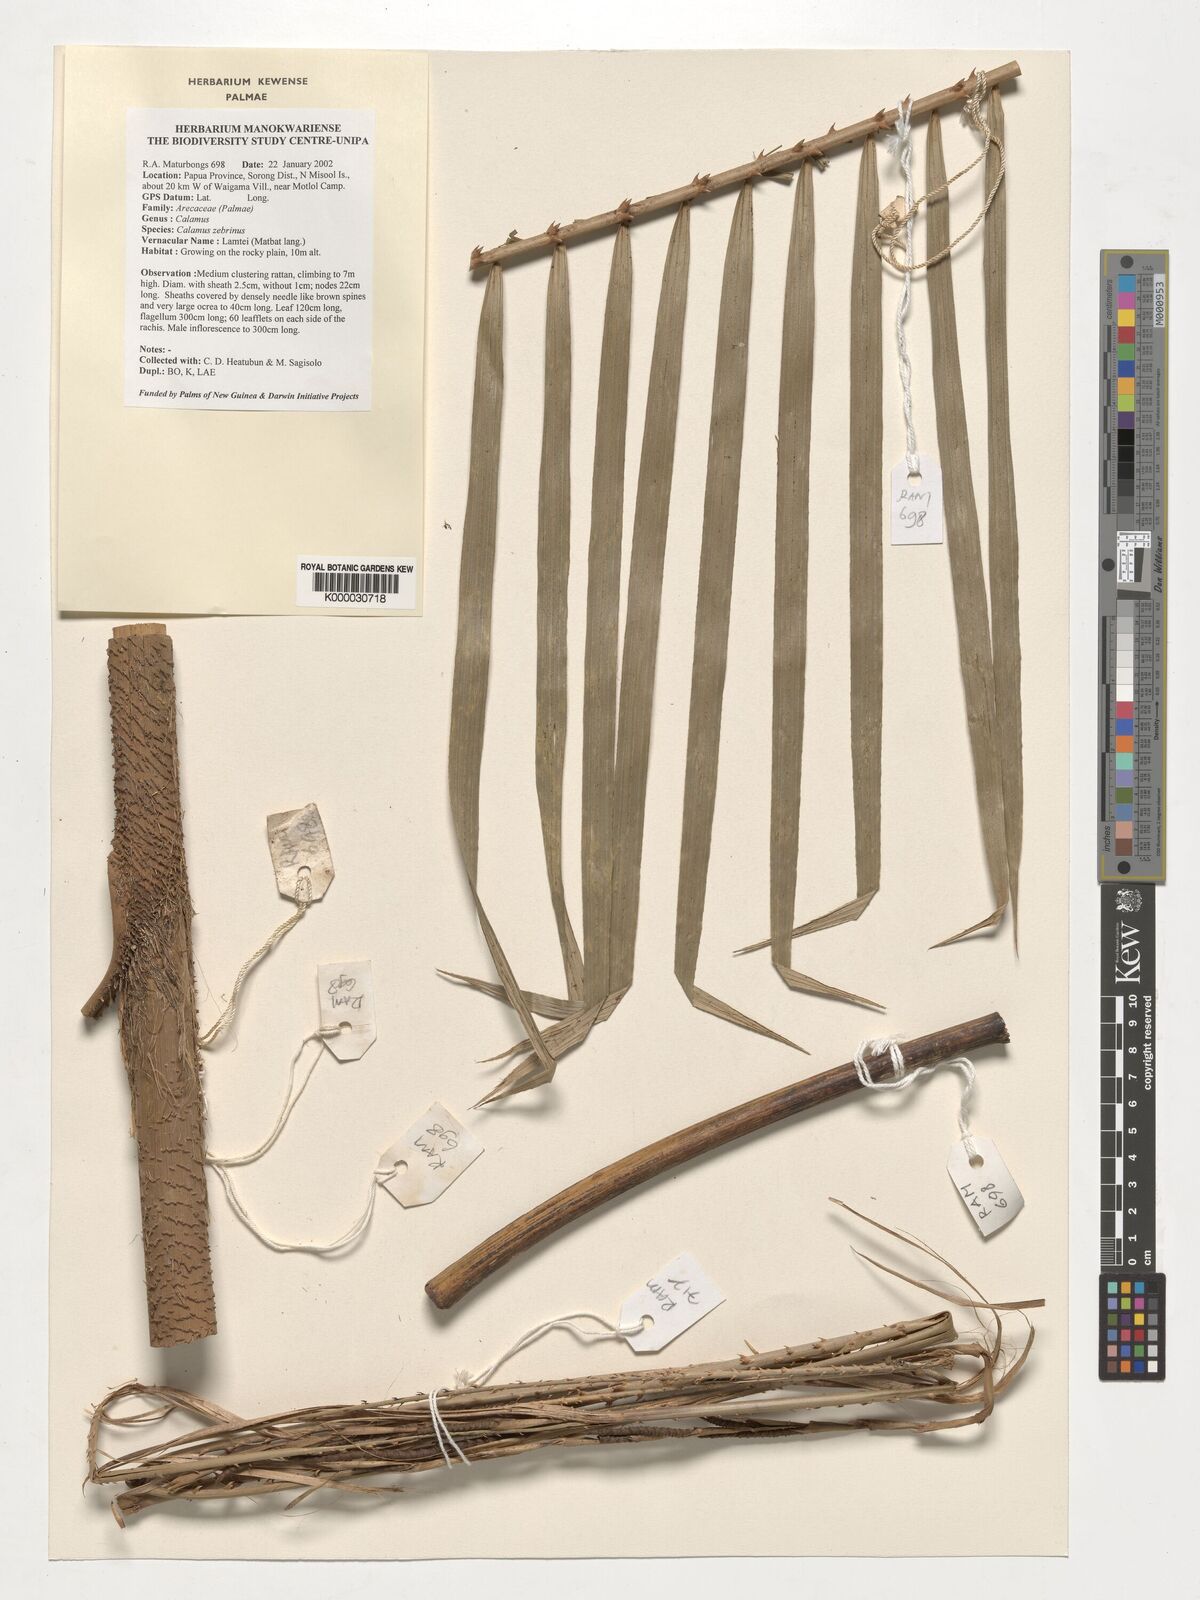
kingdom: Plantae
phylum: Tracheophyta
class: Liliopsida
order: Arecales
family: Arecaceae
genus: Calamus
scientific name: Calamus zebrinus
